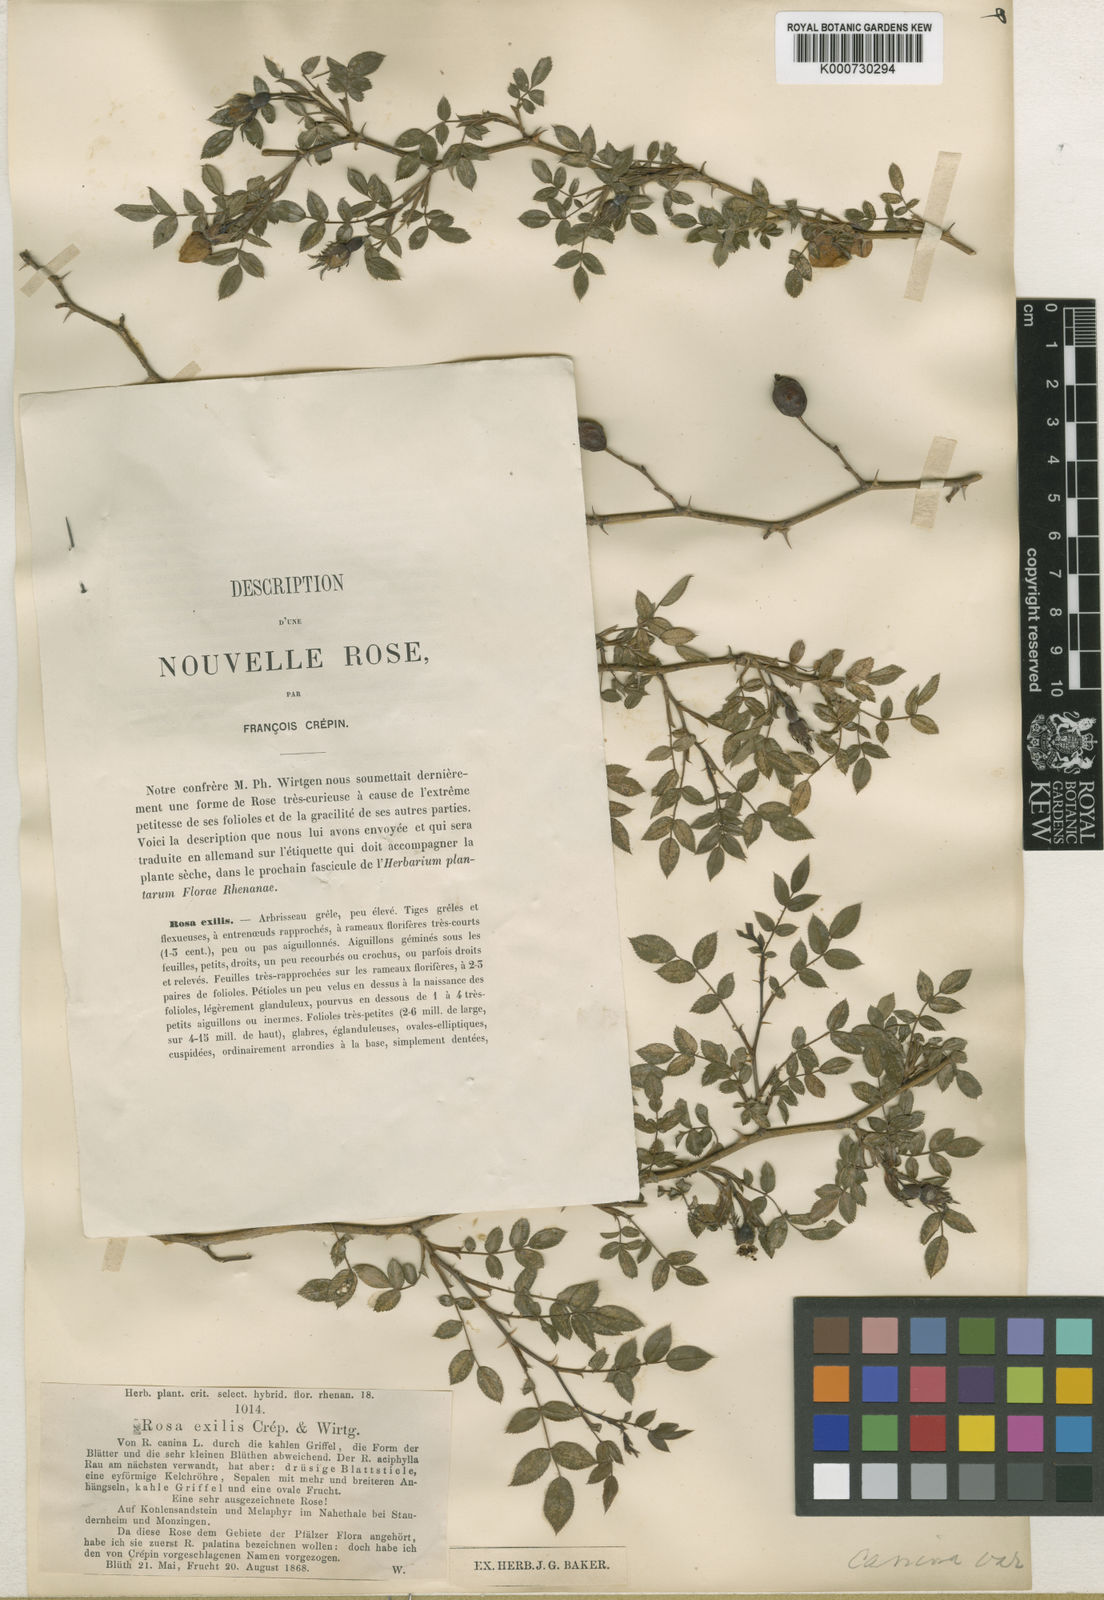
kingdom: Plantae
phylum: Tracheophyta
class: Magnoliopsida
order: Rosales
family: Rosaceae
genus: Rosa
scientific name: Rosa canina
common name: Dog rose
